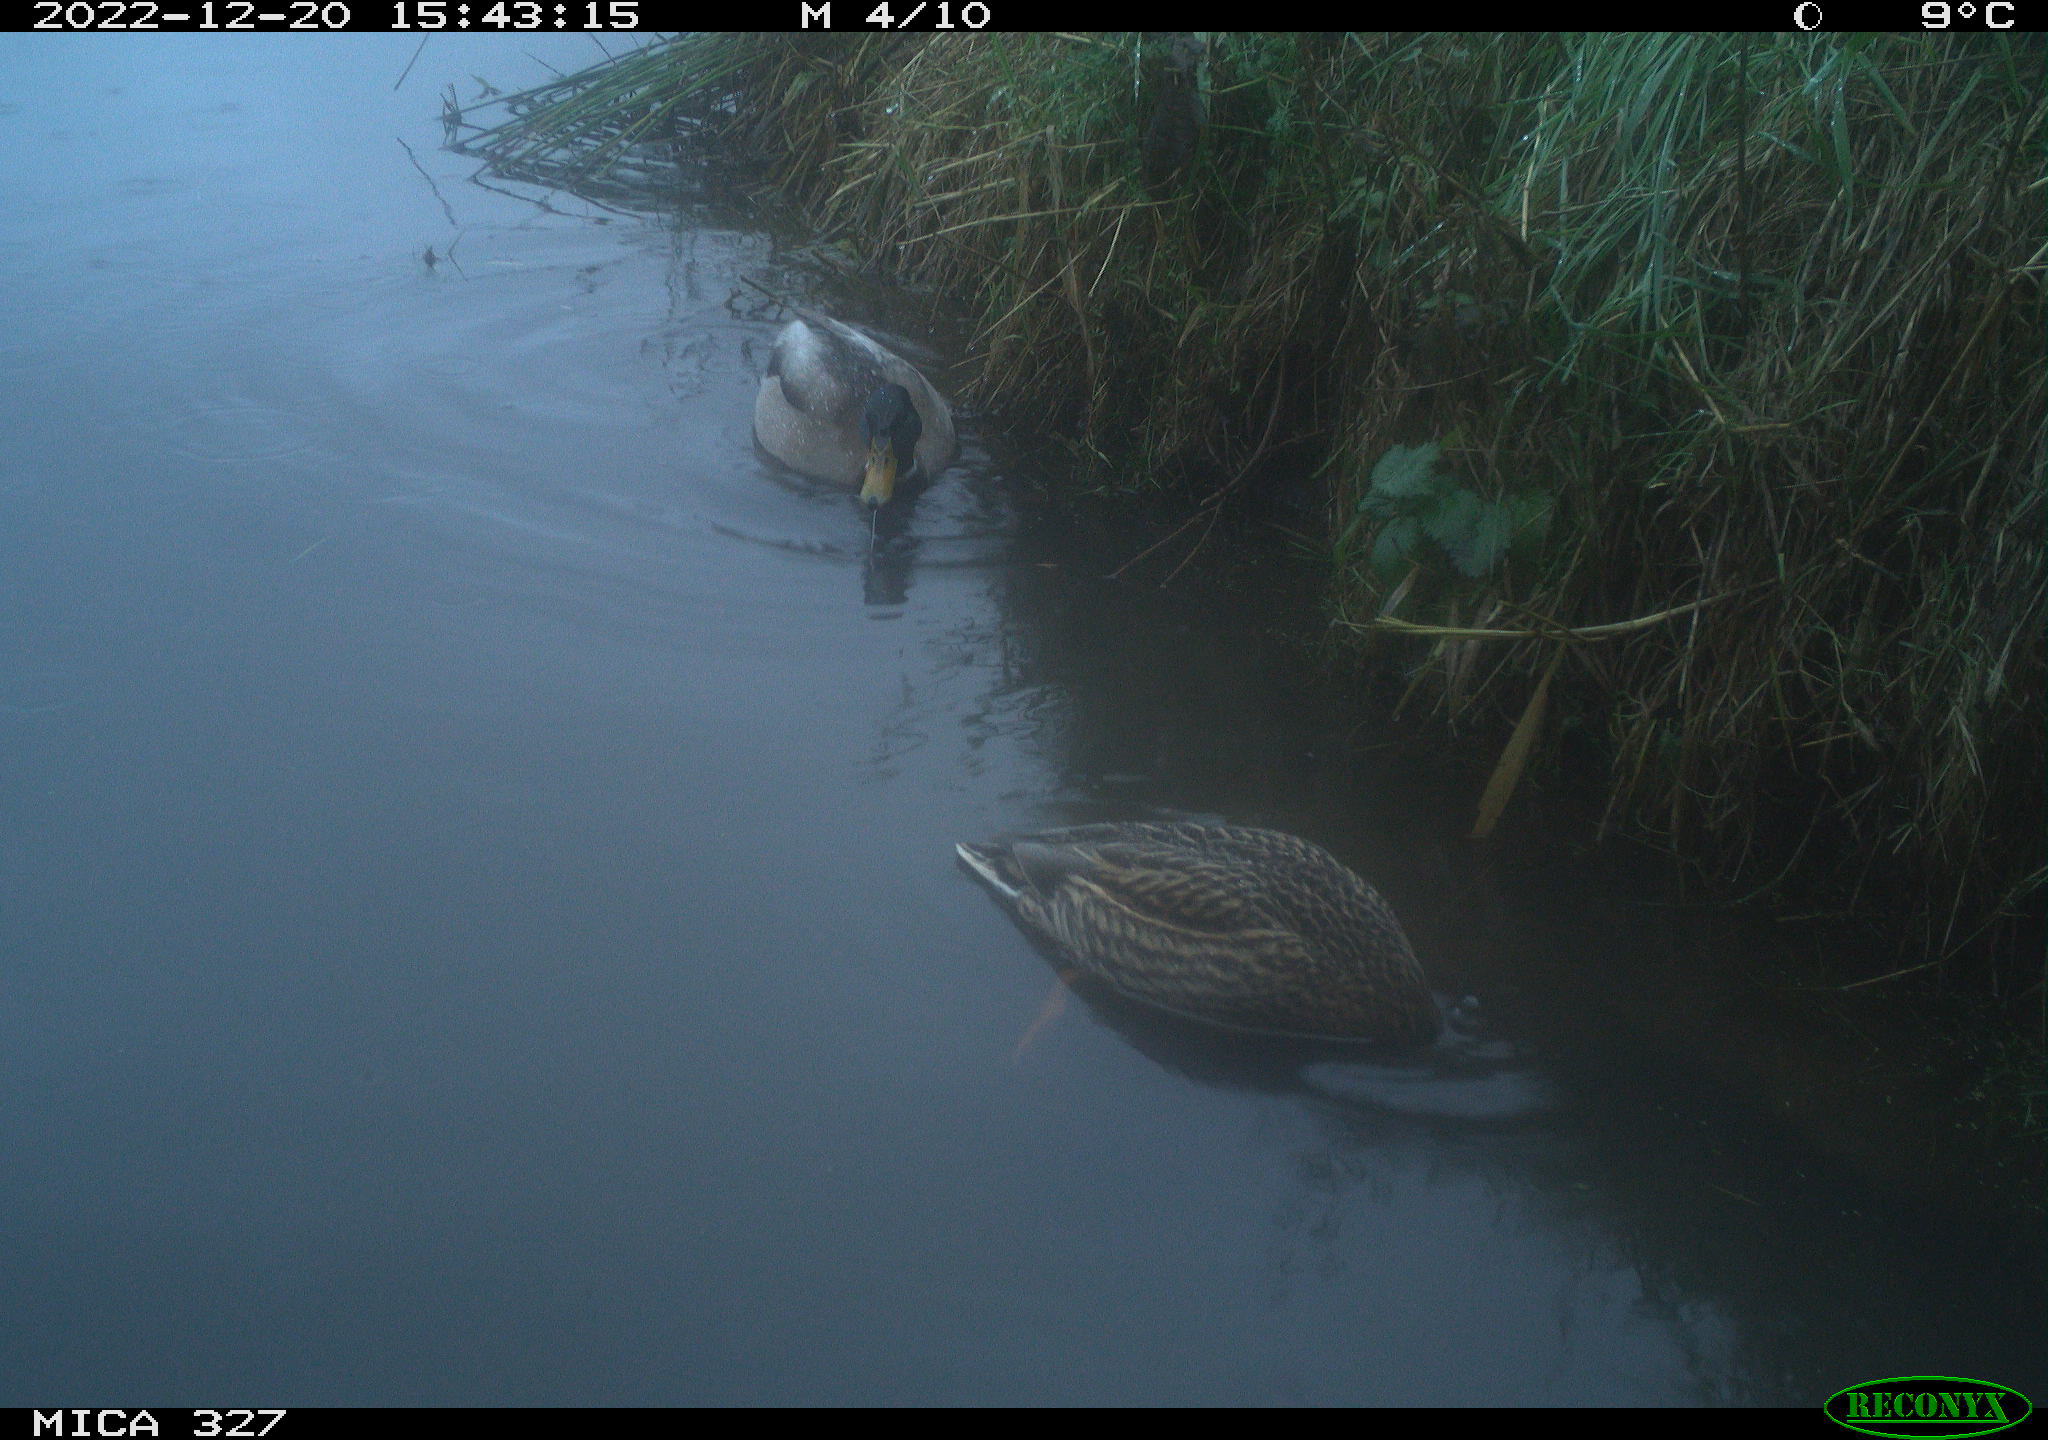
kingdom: Animalia
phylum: Chordata
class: Aves
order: Anseriformes
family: Anatidae
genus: Anas
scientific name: Anas
